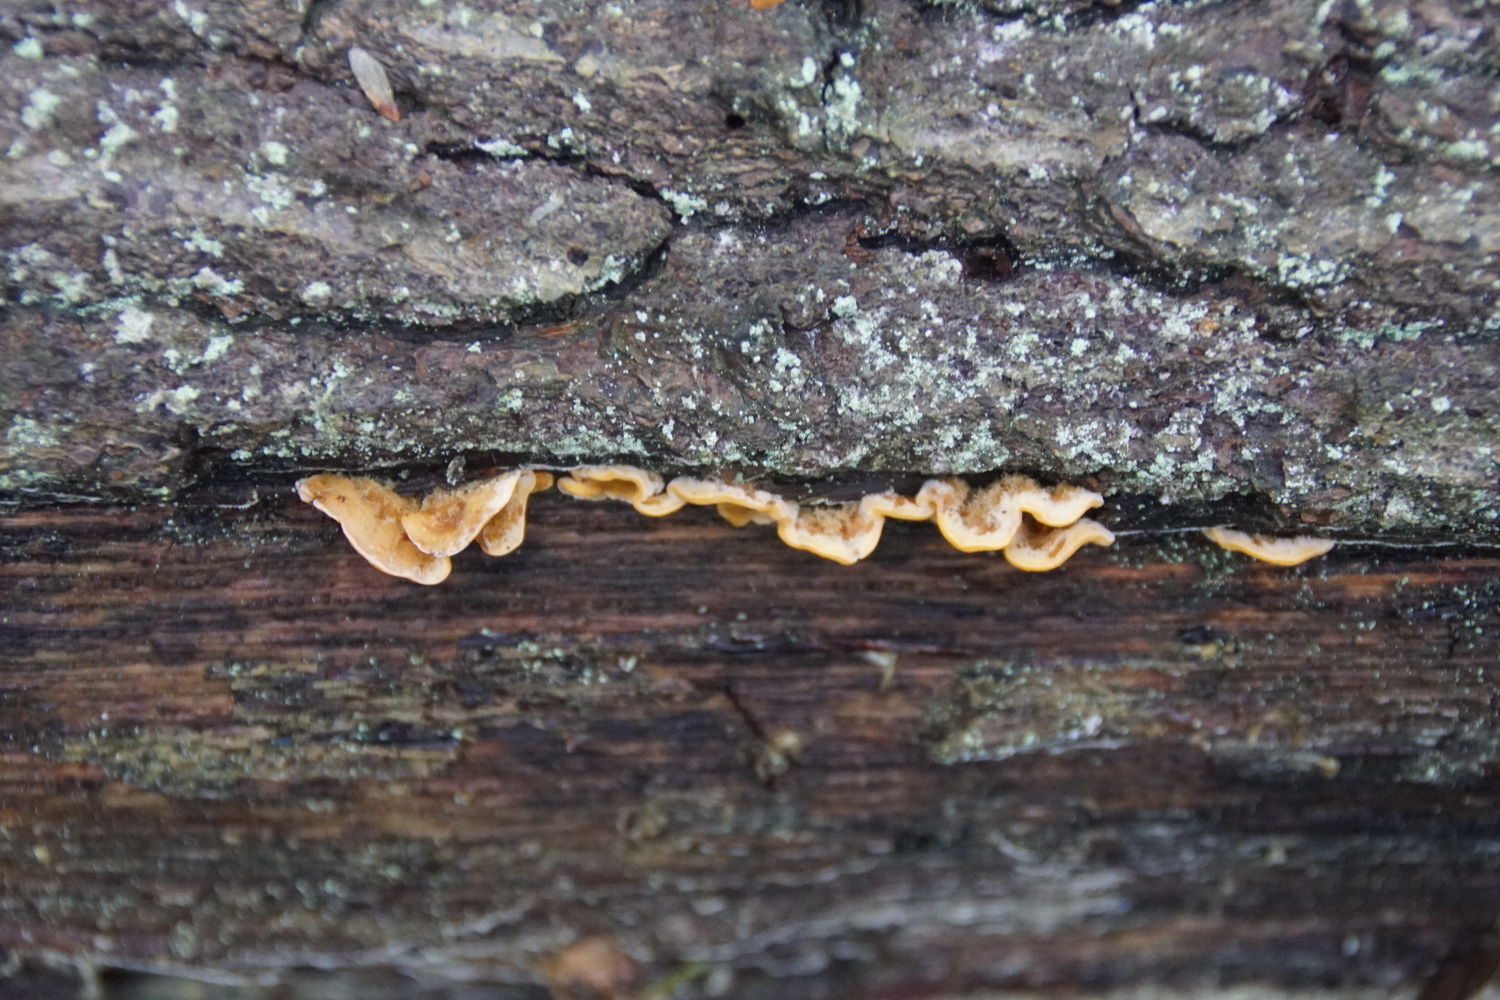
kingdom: Fungi
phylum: Basidiomycota
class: Agaricomycetes
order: Russulales
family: Stereaceae
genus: Stereum
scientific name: Stereum hirsutum
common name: håret lædersvamp
